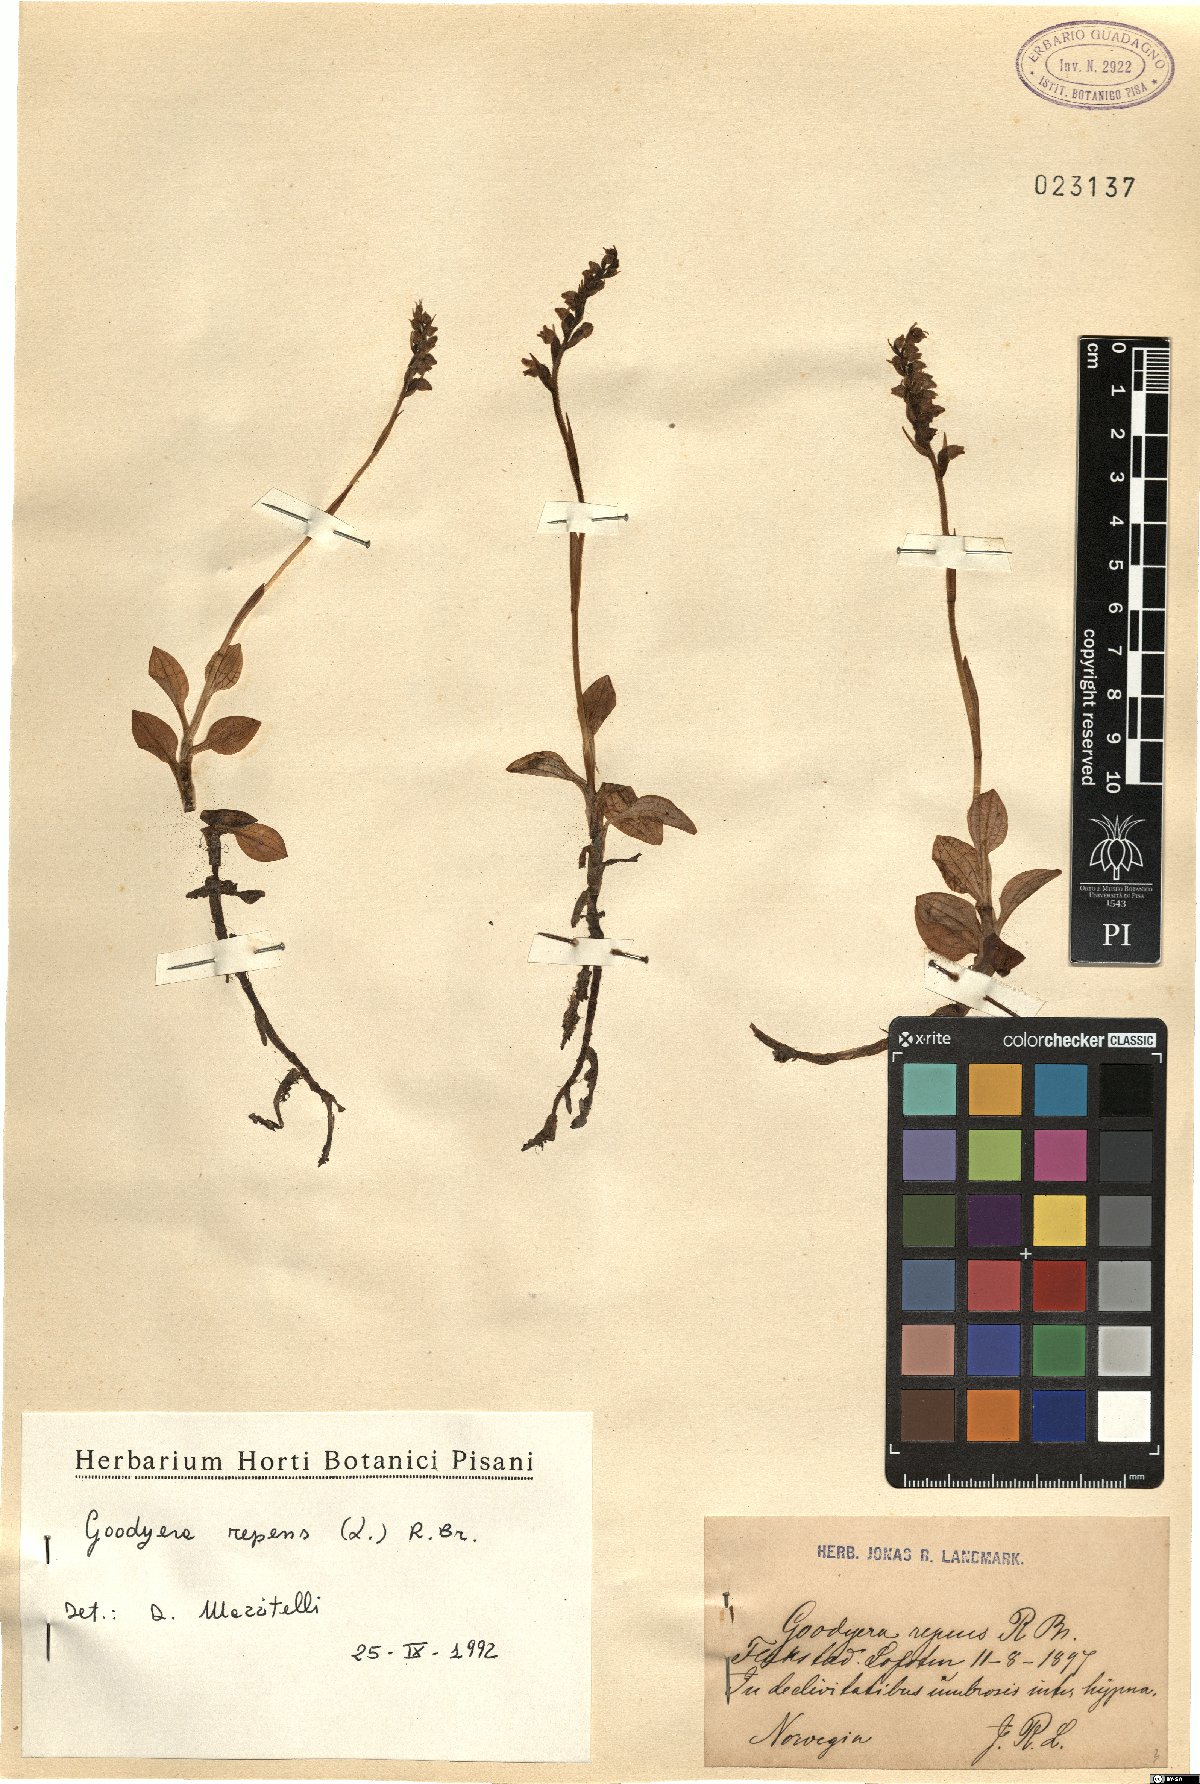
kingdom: Plantae
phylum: Tracheophyta
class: Liliopsida
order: Asparagales
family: Orchidaceae
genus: Goodyera
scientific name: Goodyera repens
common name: Creeping lady's-tresses
